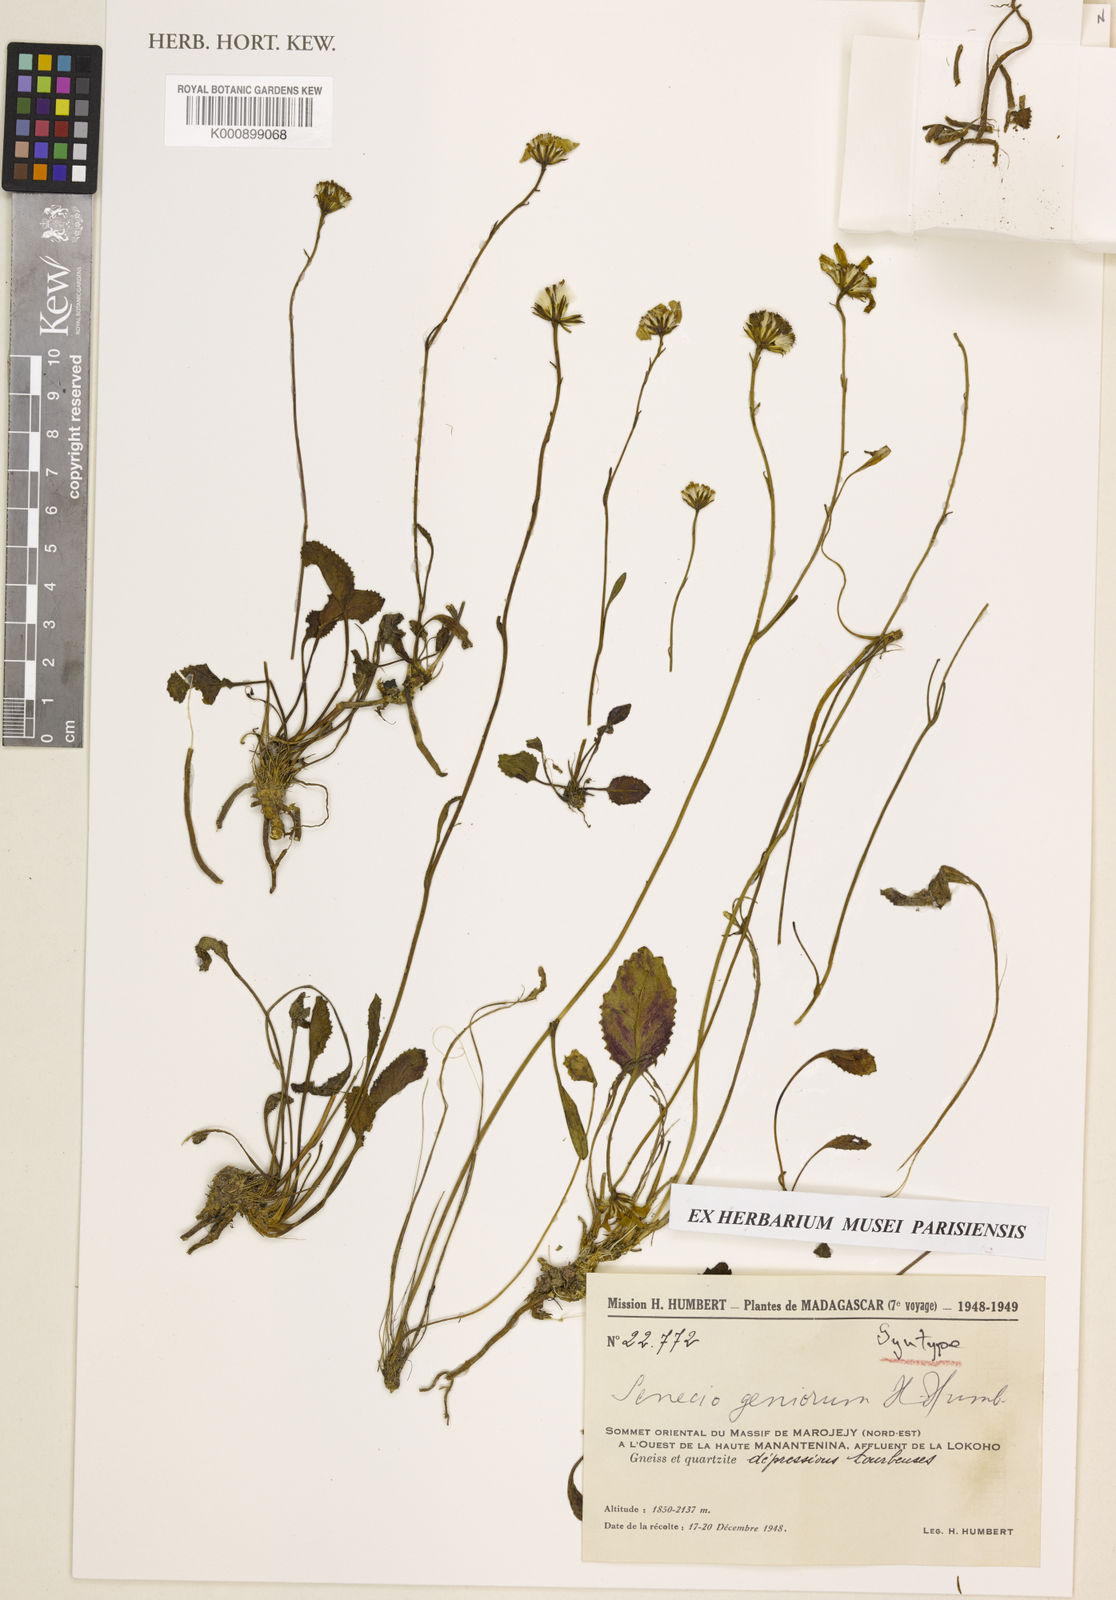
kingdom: Plantae
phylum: Tracheophyta
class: Magnoliopsida
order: Asterales
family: Asteraceae
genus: Senecio
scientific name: Senecio geniorum
